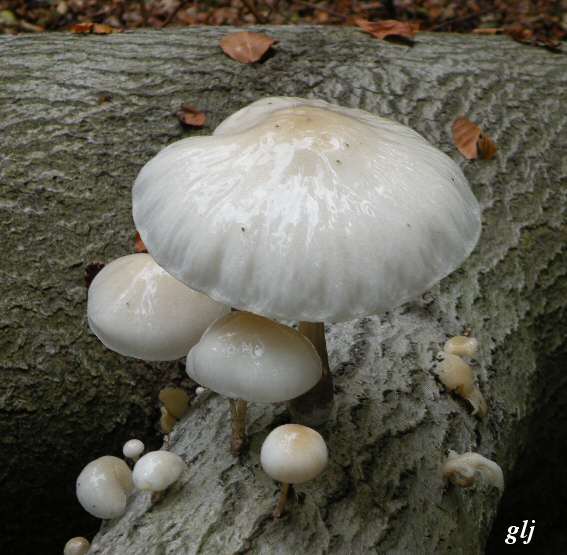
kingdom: Fungi
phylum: Basidiomycota
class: Agaricomycetes
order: Agaricales
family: Physalacriaceae
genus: Mucidula
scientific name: Mucidula mucida
